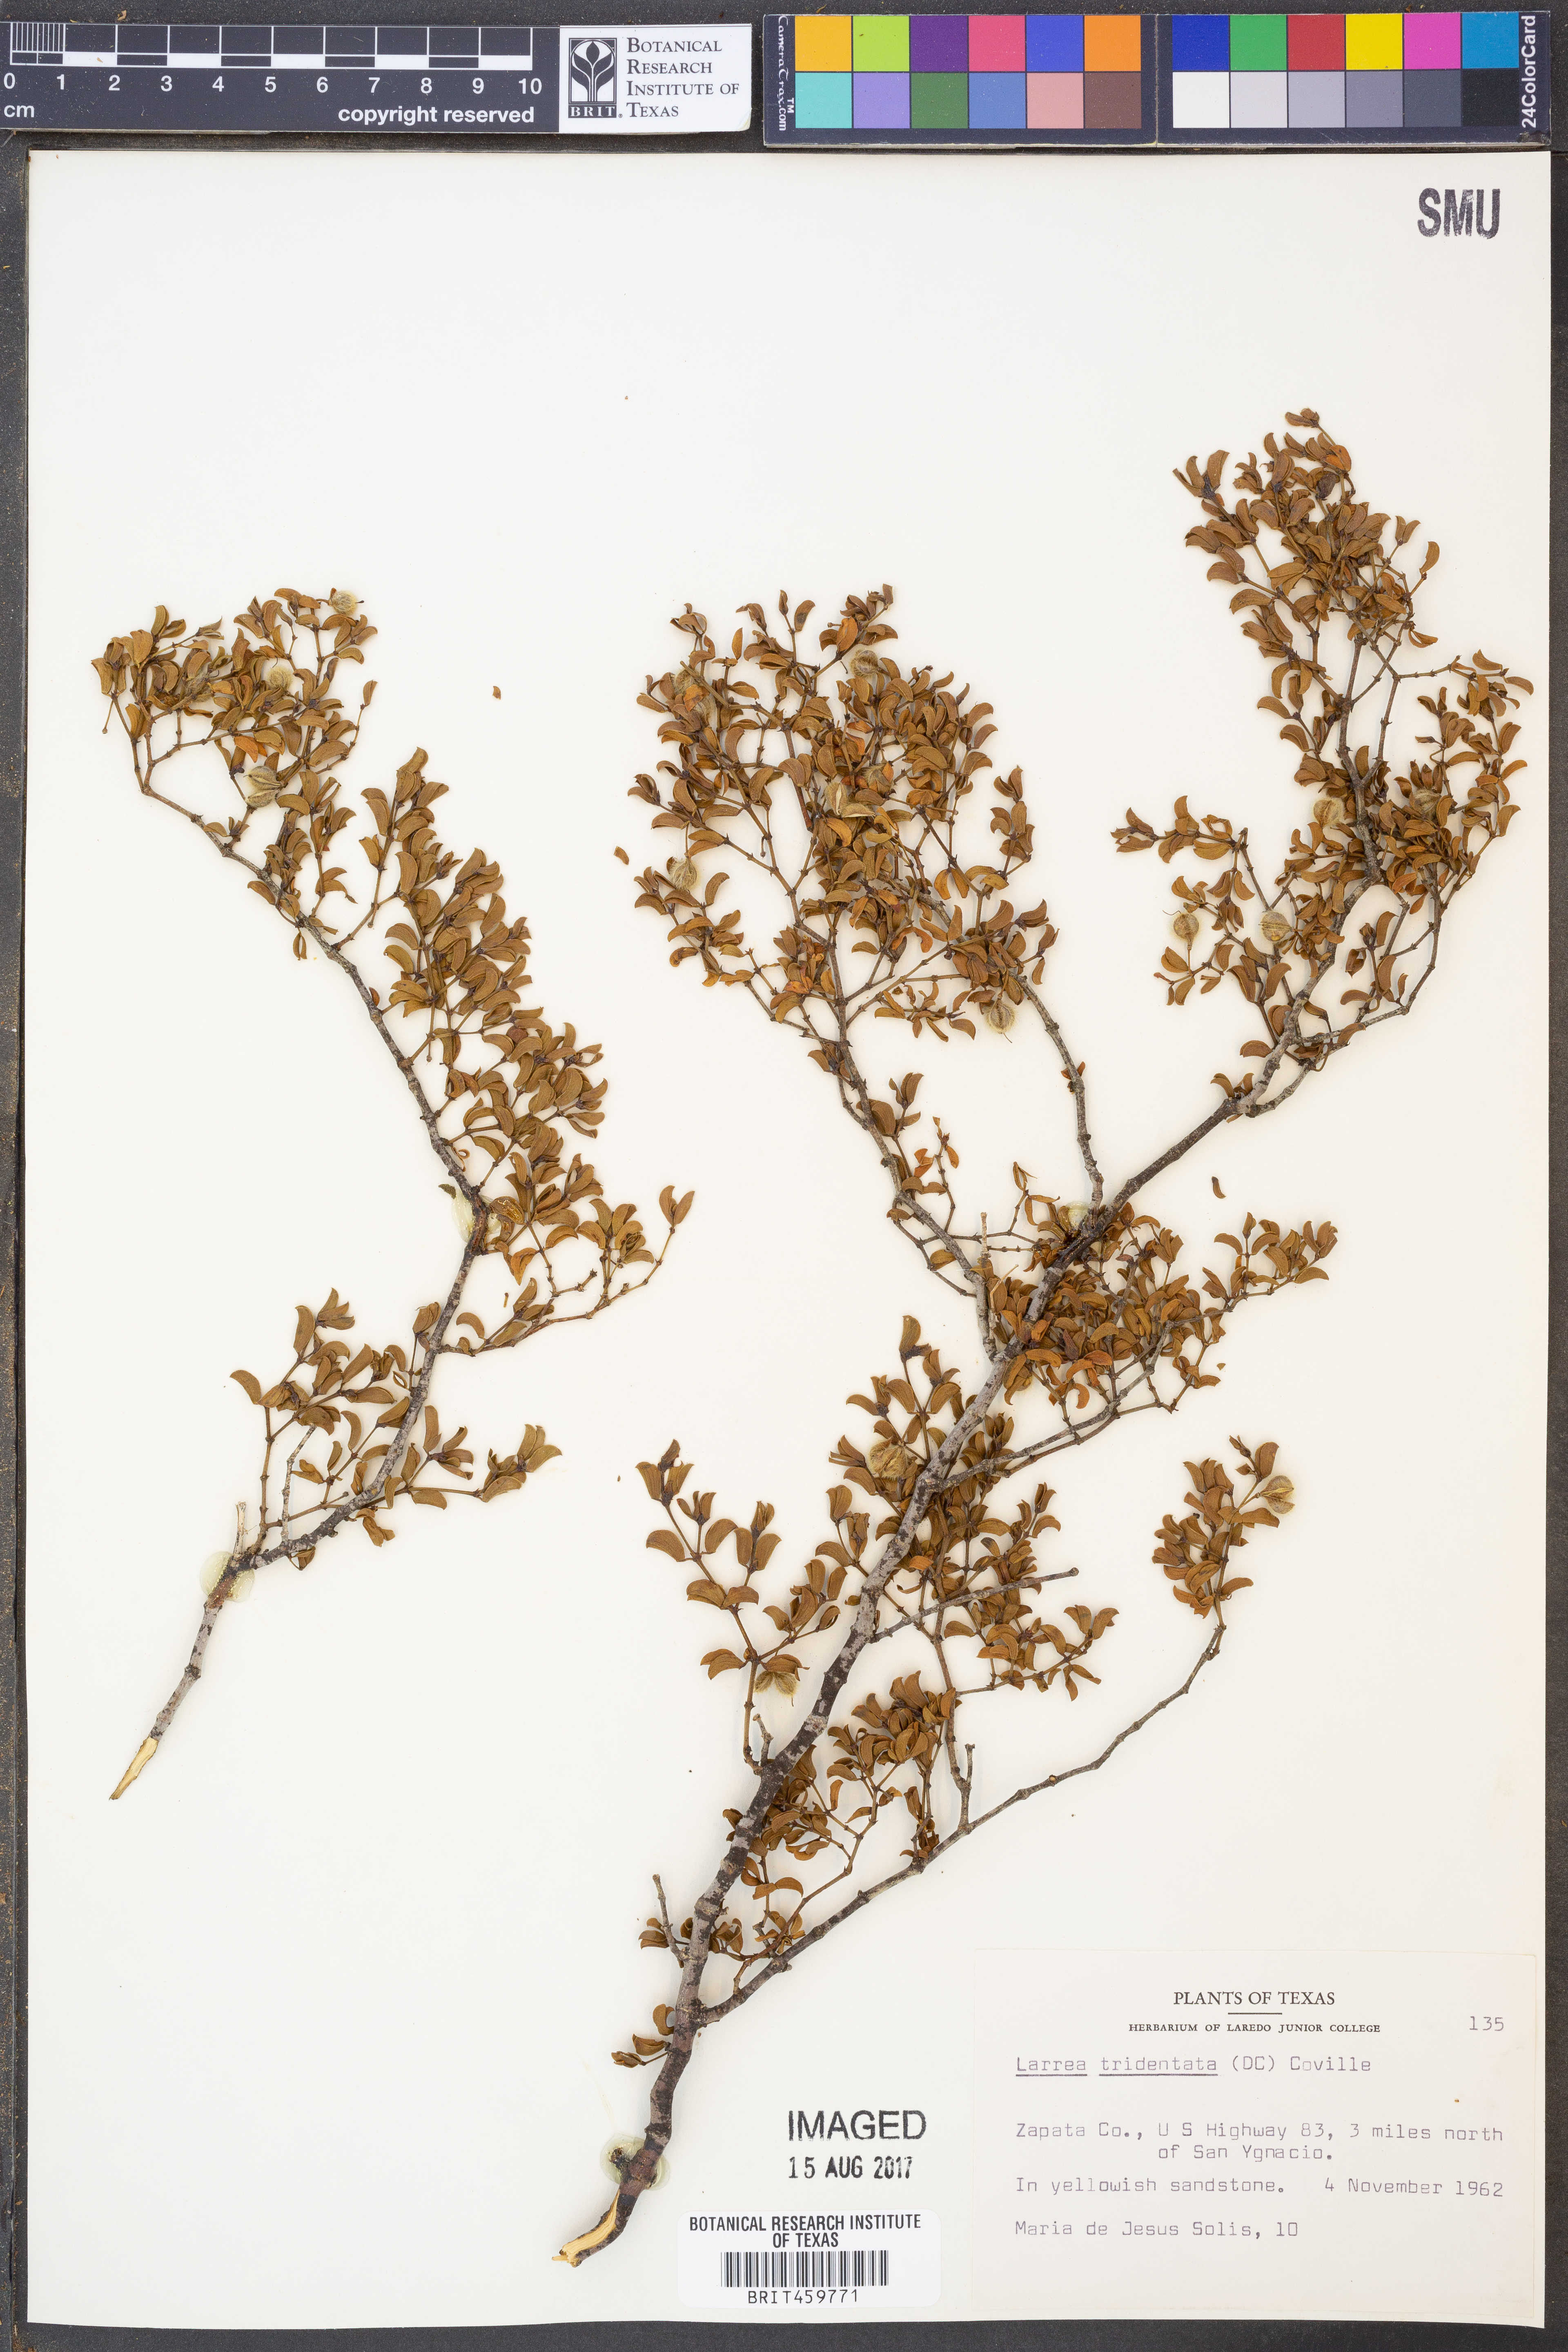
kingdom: Plantae
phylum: Tracheophyta
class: Magnoliopsida
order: Zygophyllales
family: Zygophyllaceae
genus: Larrea
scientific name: Larrea tridentata
